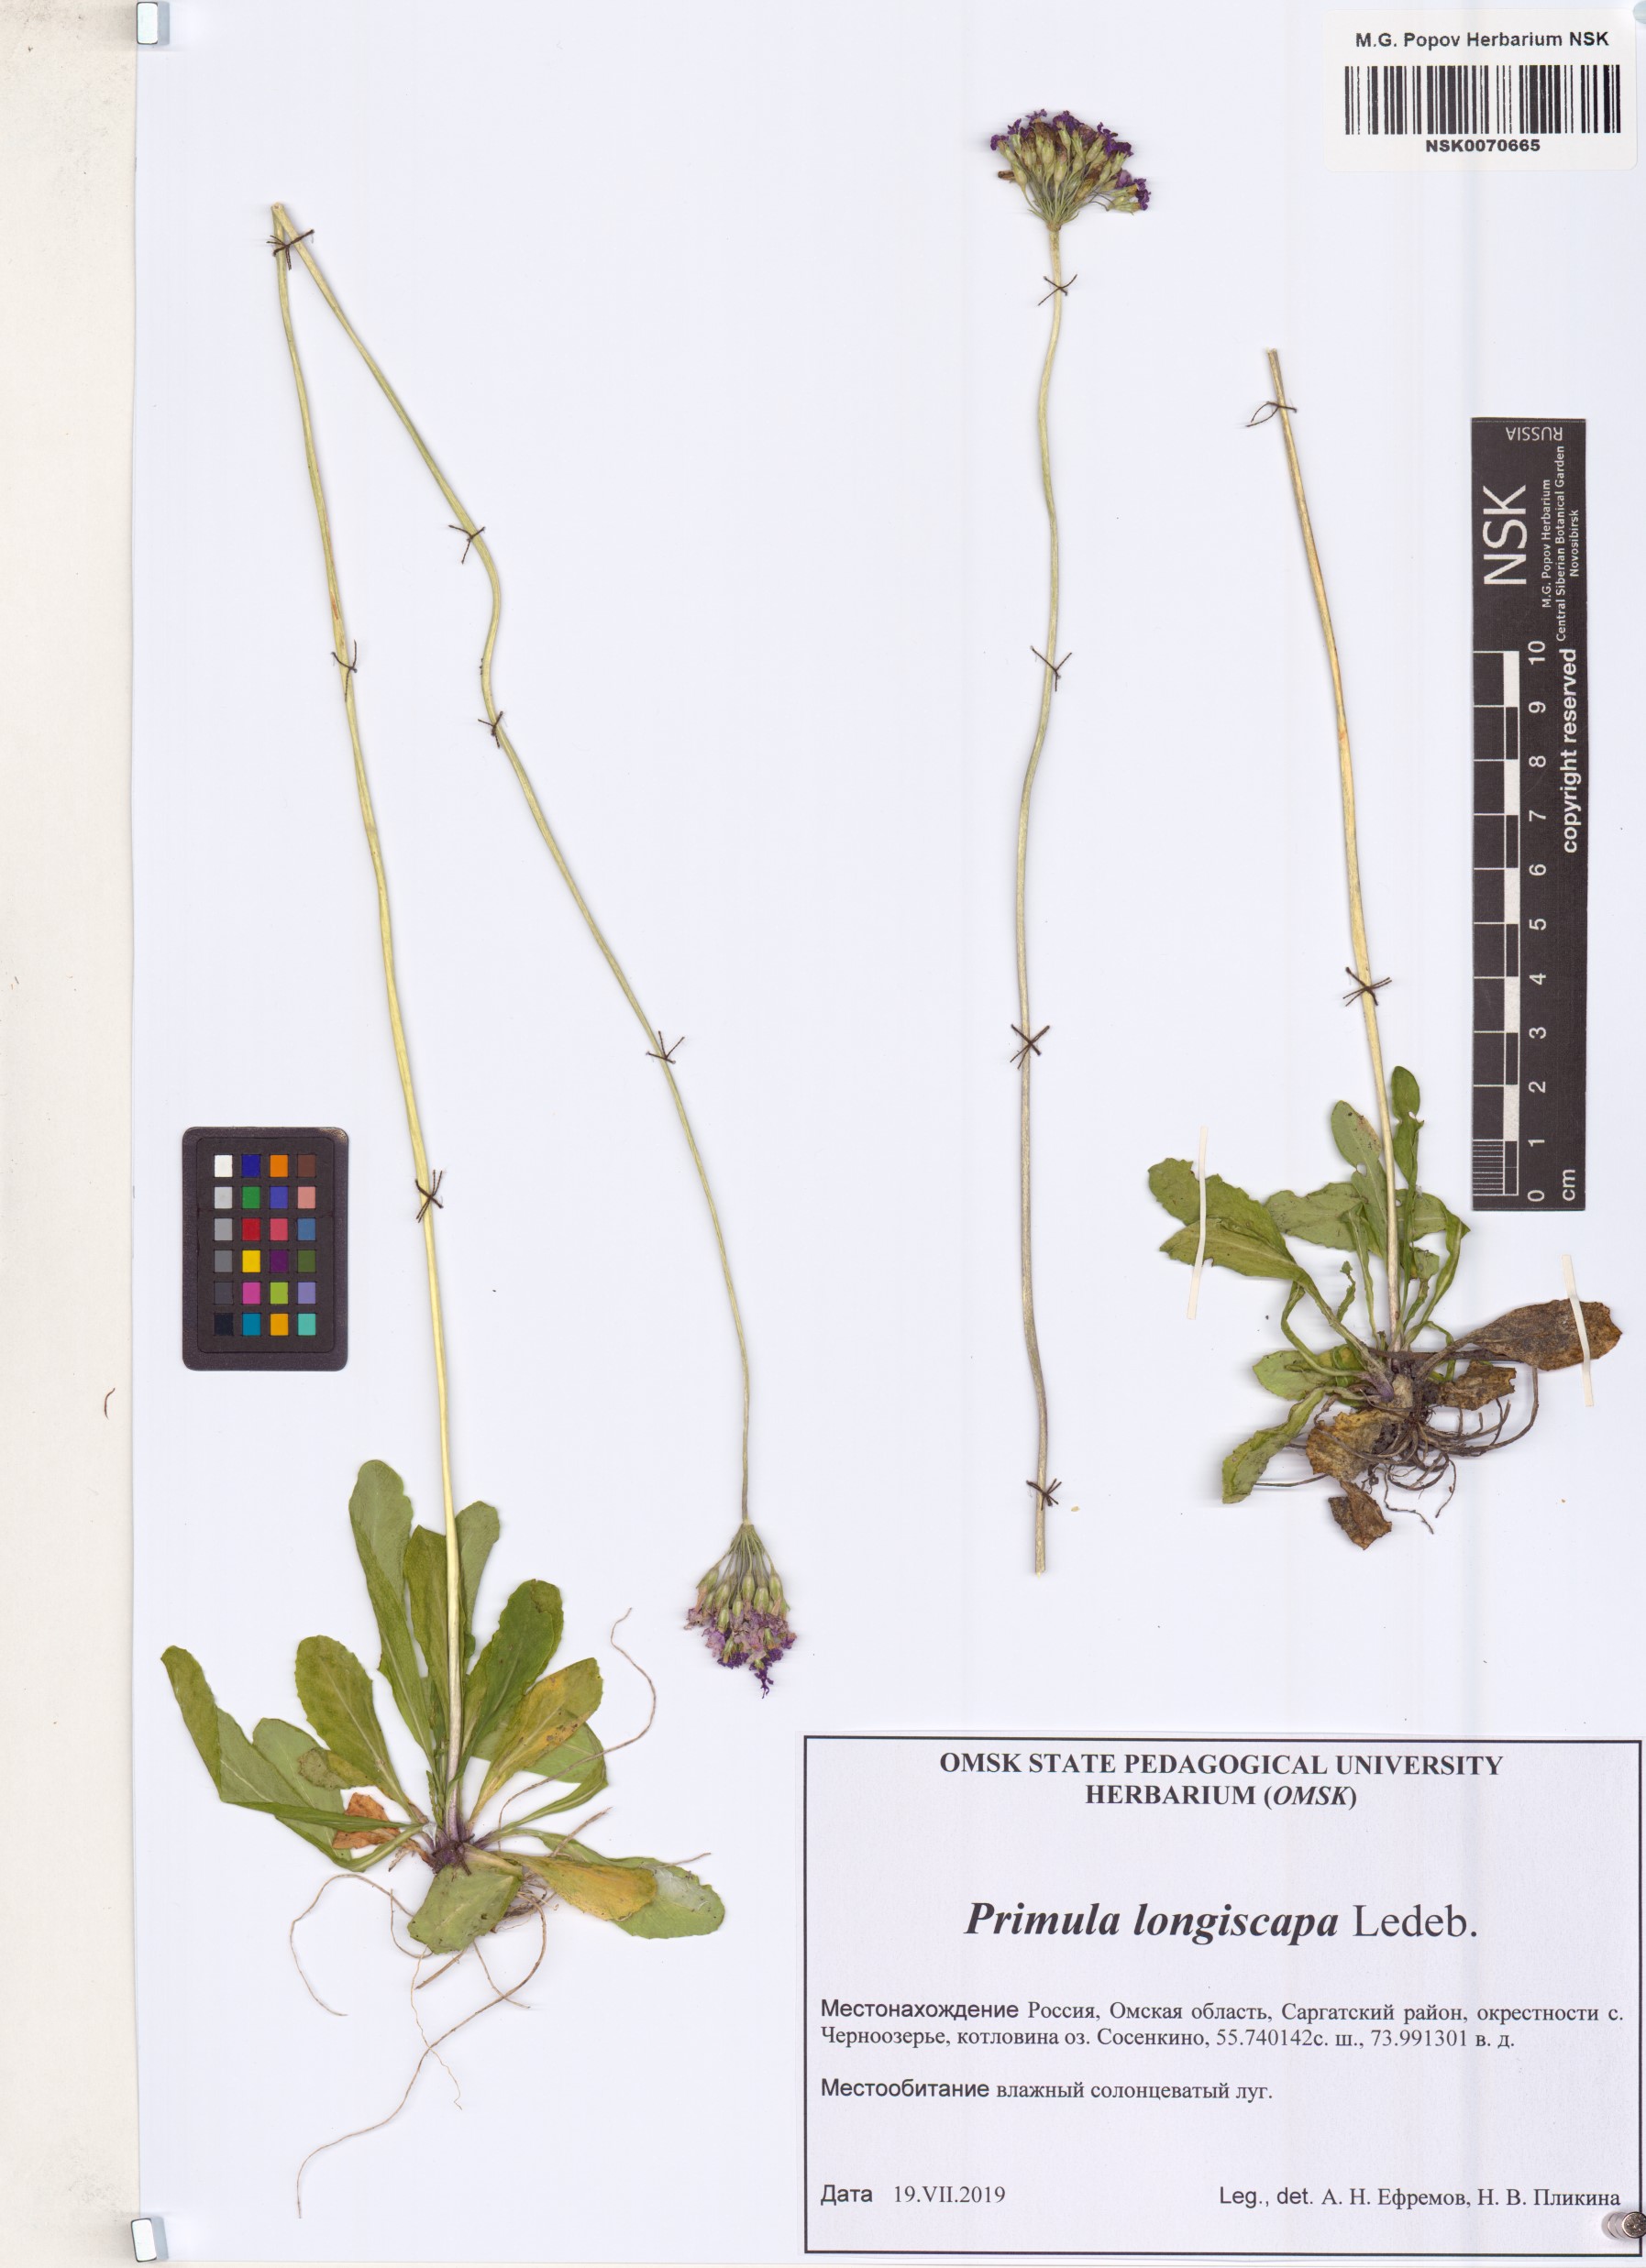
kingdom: Plantae
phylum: Tracheophyta
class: Magnoliopsida
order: Ericales
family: Primulaceae
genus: Primula
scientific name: Primula longiscapa
